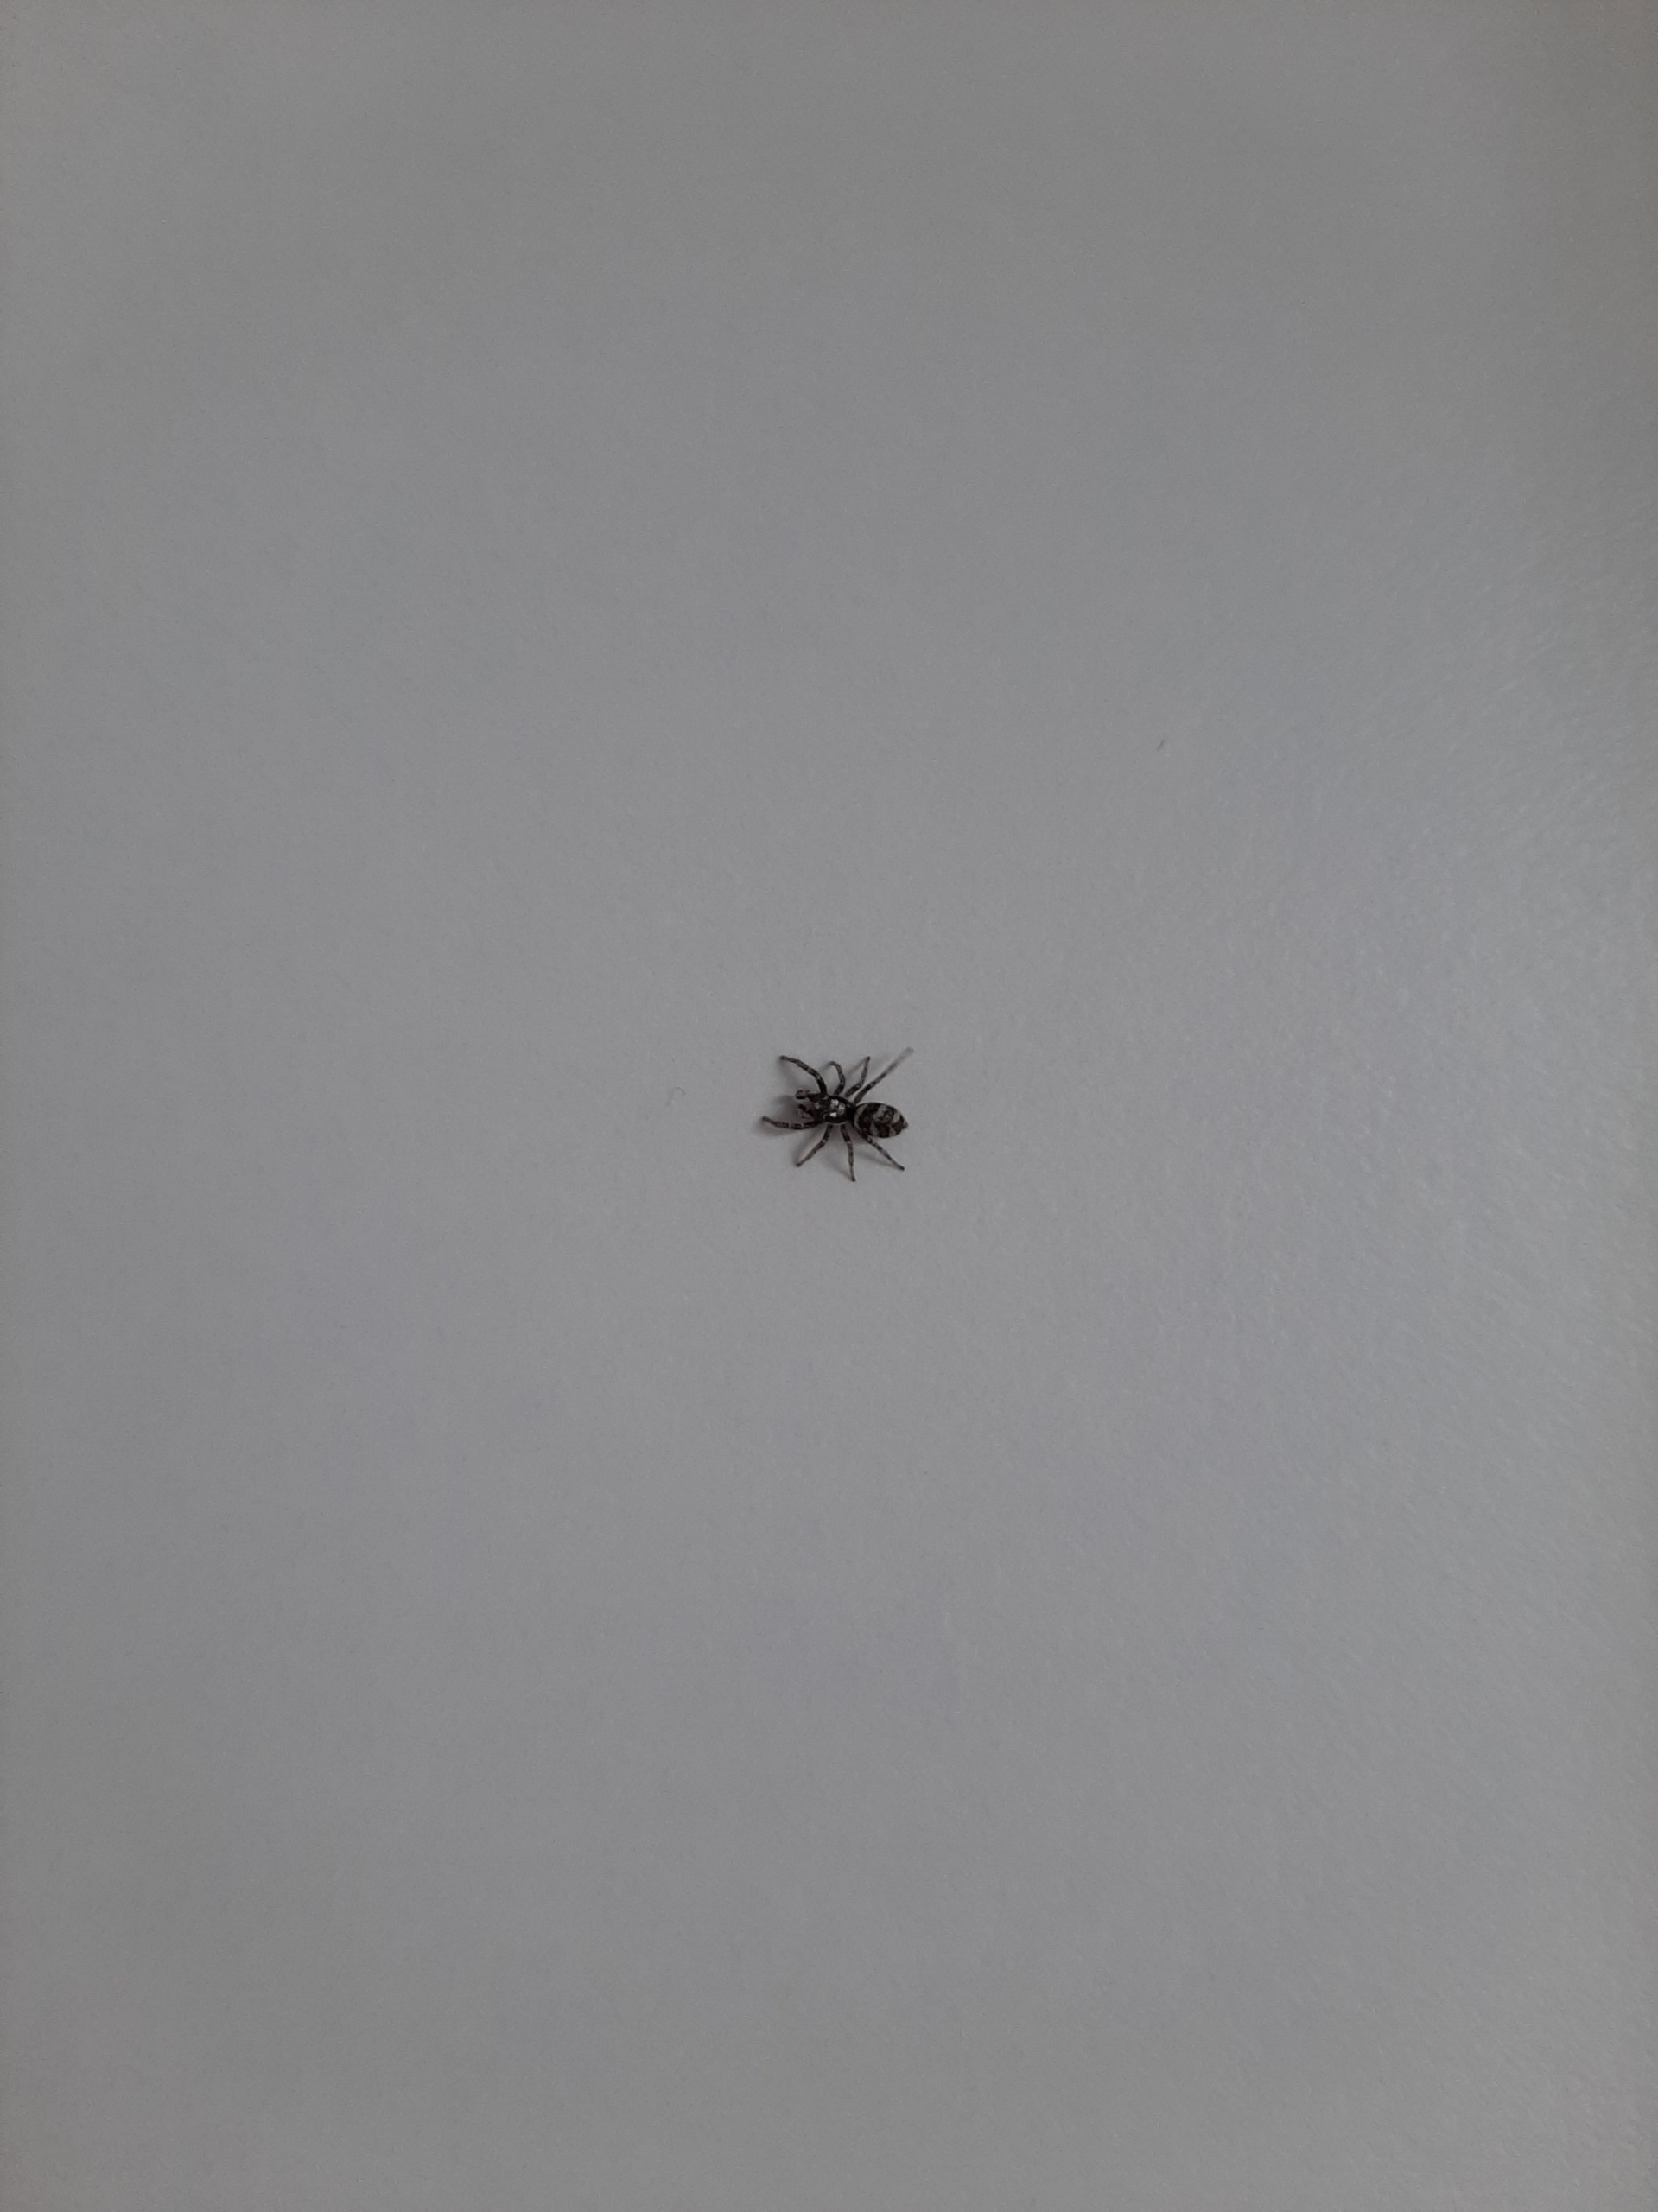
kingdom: Animalia
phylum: Arthropoda
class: Arachnida
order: Araneae
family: Salticidae
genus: Salticus
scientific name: Salticus scenicus
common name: Almindelig zebraedderkop
